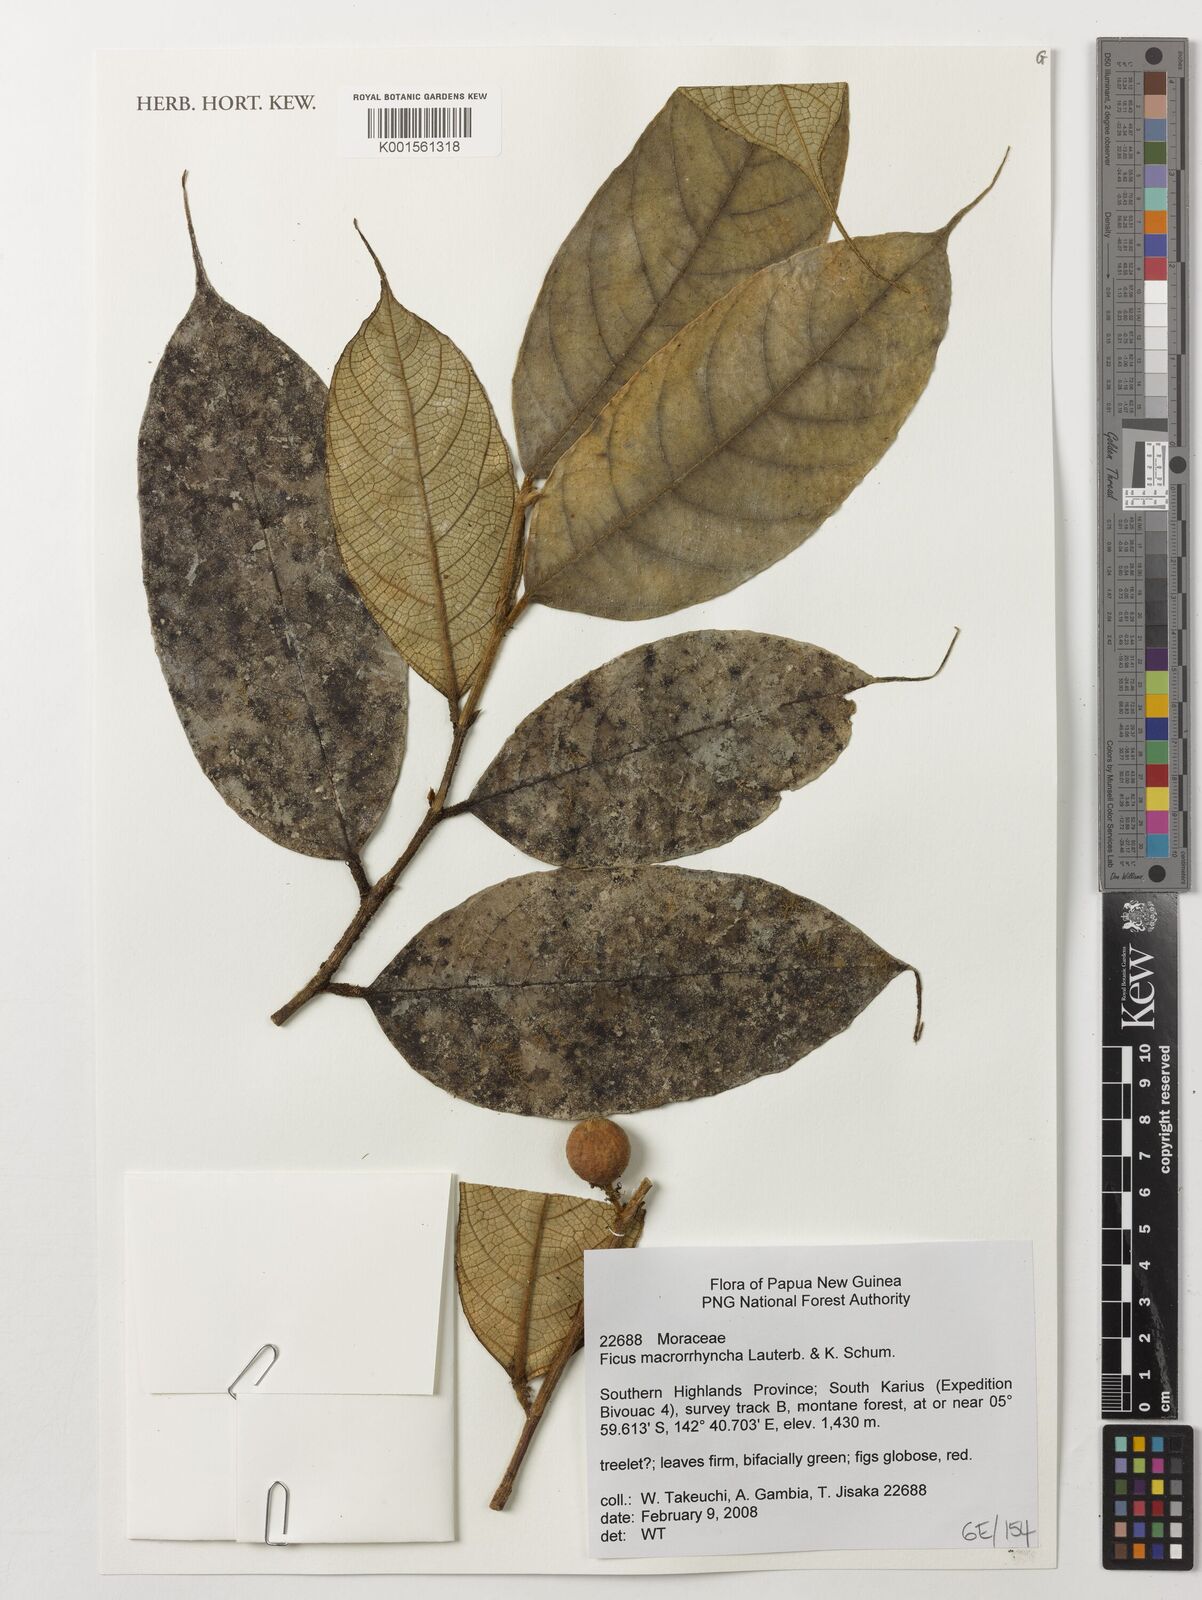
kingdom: Plantae
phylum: Tracheophyta
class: Magnoliopsida
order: Rosales
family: Moraceae
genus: Ficus
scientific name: Ficus macrorrhyncha
